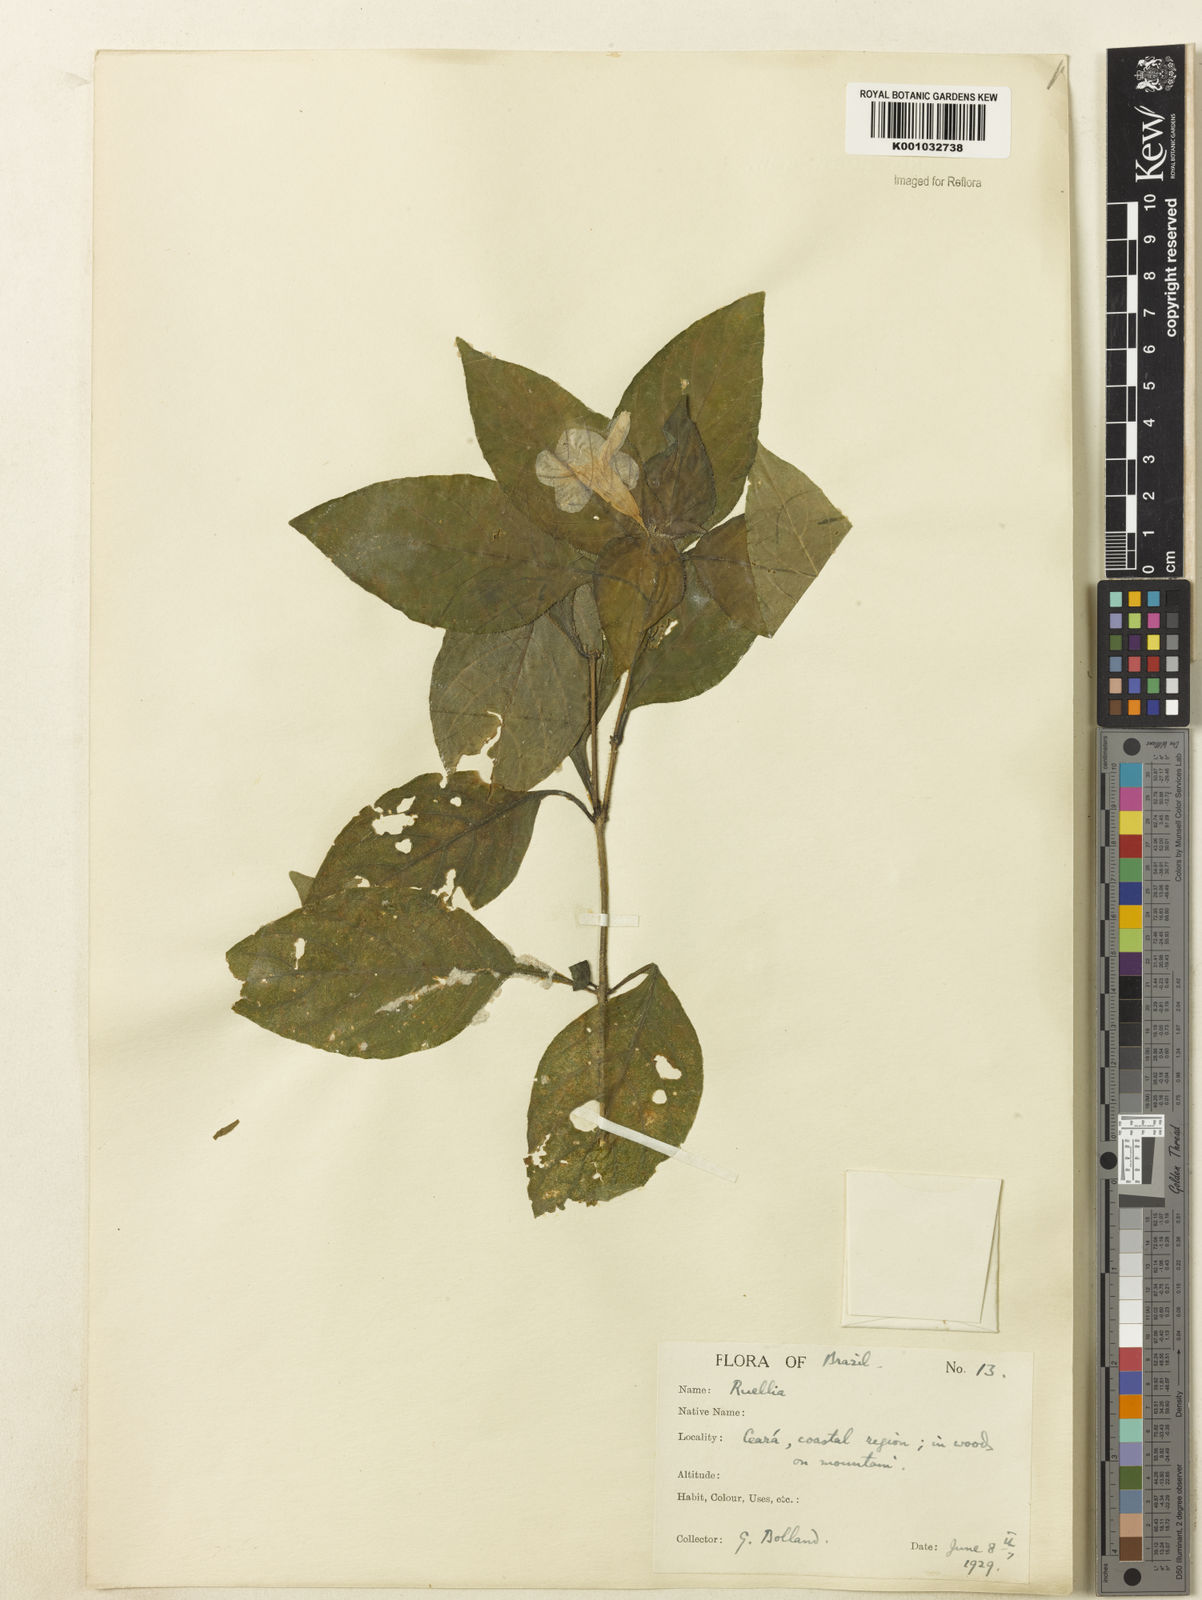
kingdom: Plantae
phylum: Tracheophyta
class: Magnoliopsida
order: Lamiales
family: Acanthaceae
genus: Ruellia
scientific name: Ruellia
